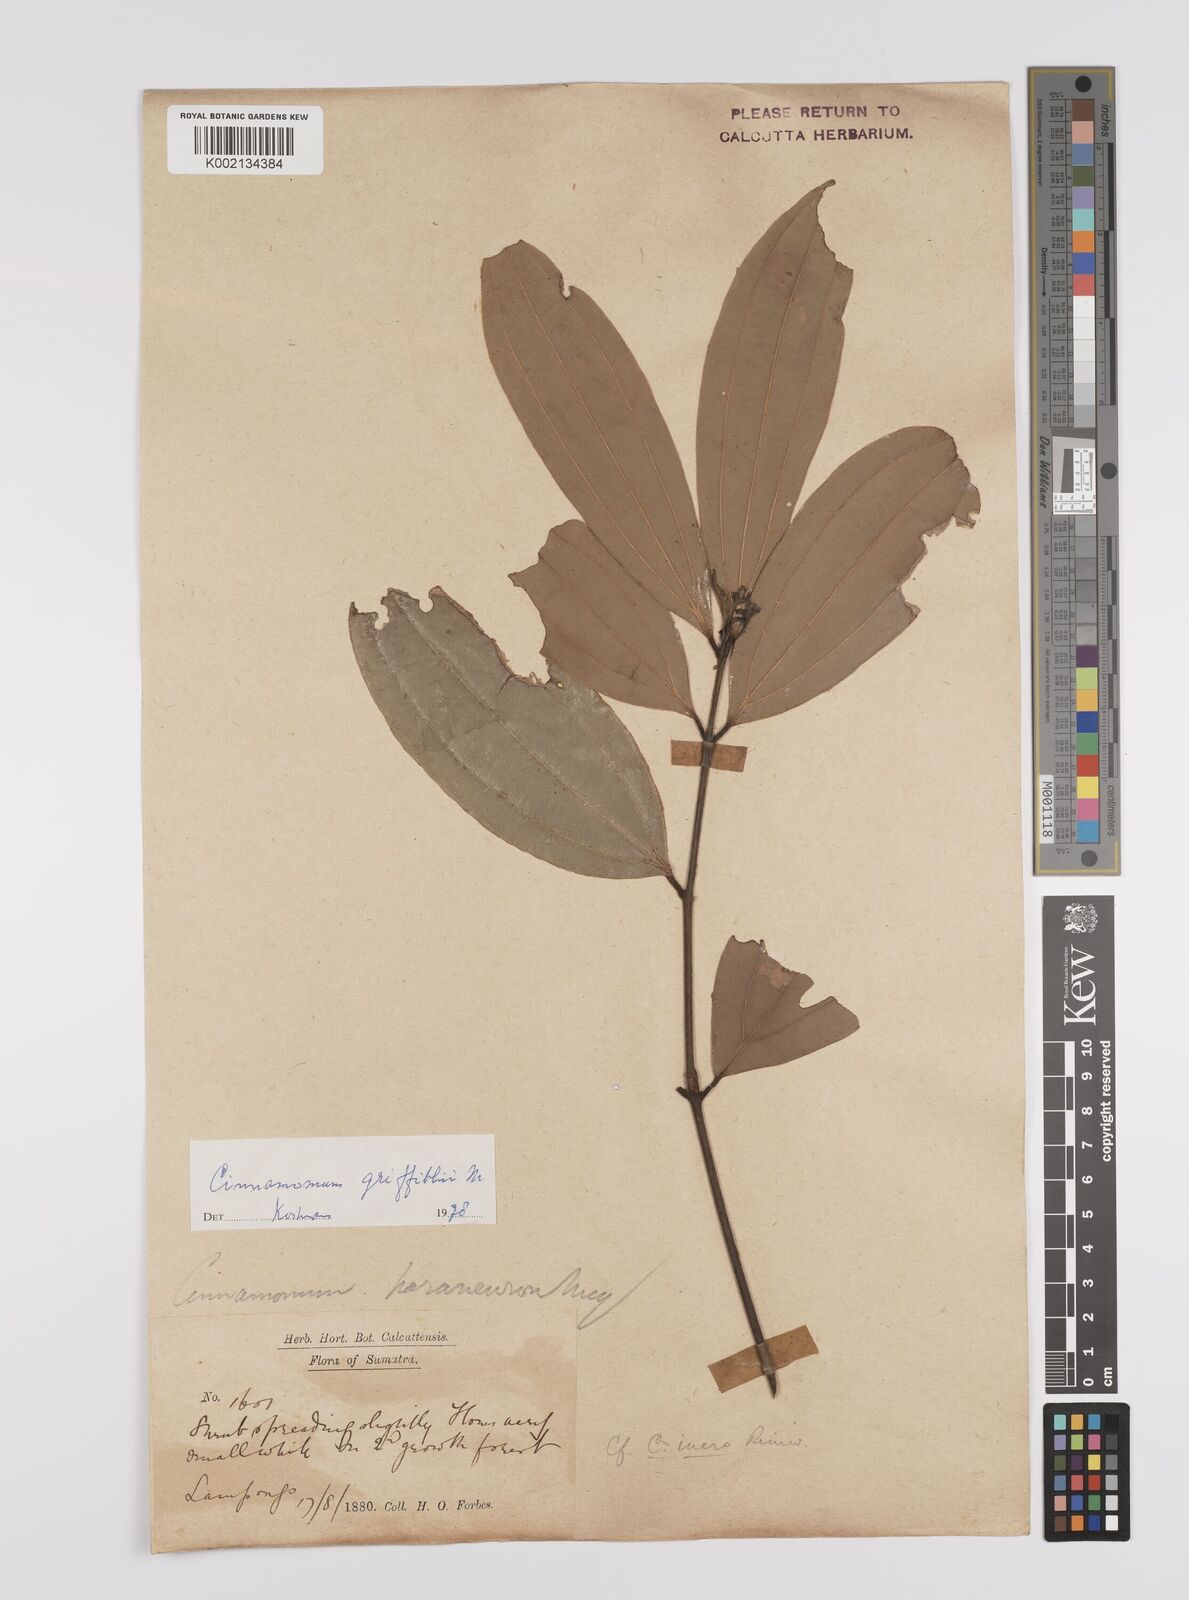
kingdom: Plantae
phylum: Tracheophyta
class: Magnoliopsida
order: Laurales
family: Lauraceae
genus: Cinnamomum
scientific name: Cinnamomum iners
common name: Wild cinnamon
